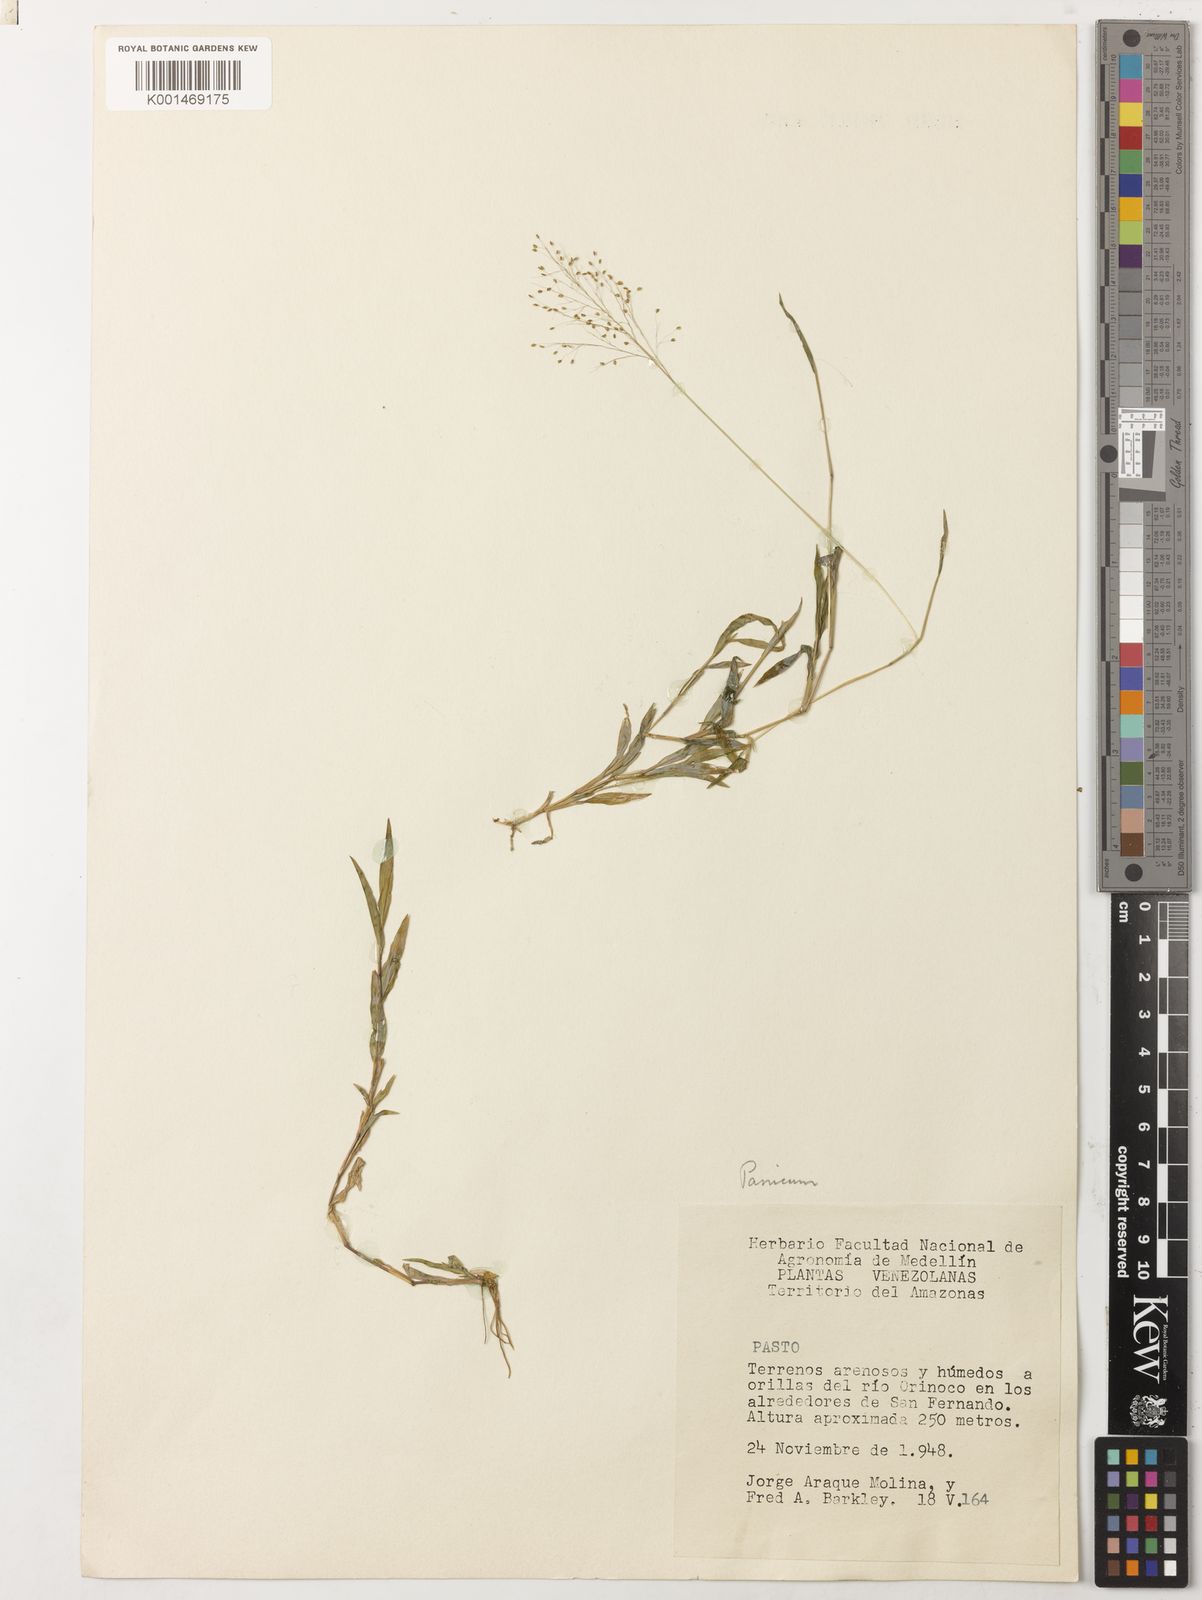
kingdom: Plantae
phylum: Tracheophyta
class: Liliopsida
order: Poales
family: Poaceae
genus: Urochloa
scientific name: Urochloa reptans
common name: Sprawling signalgrass
